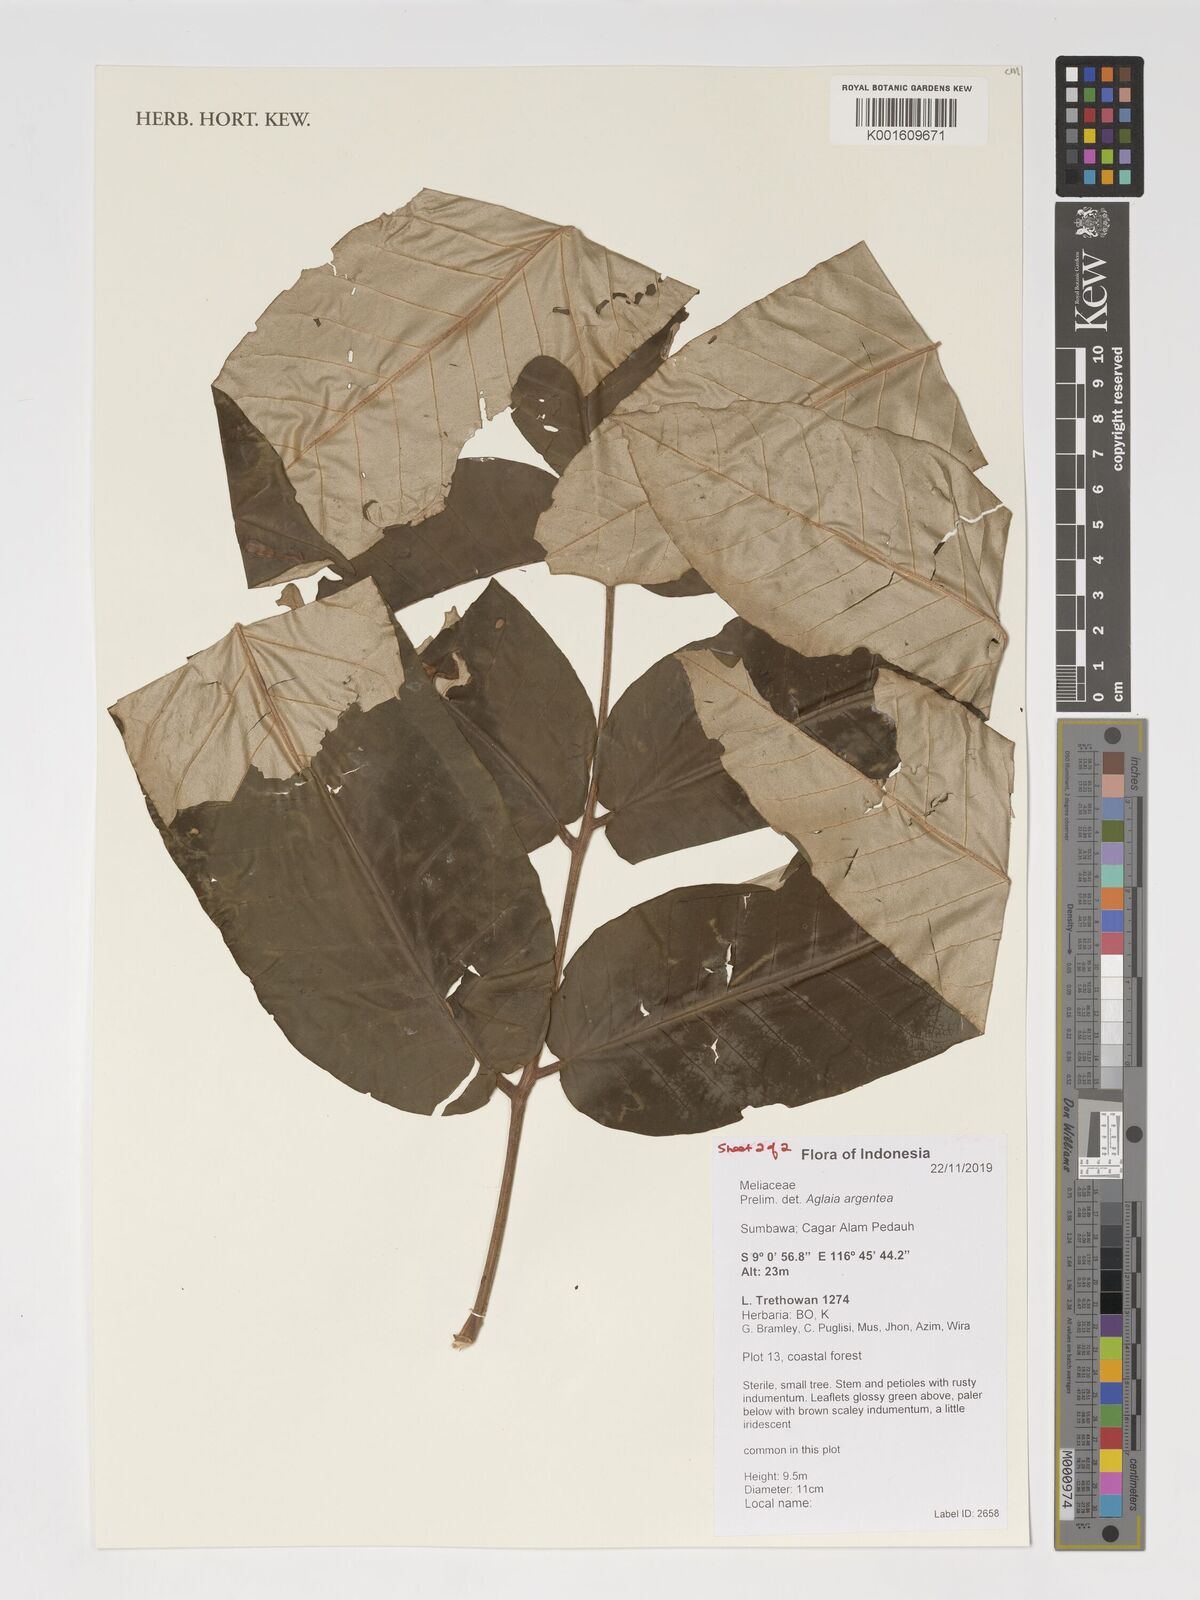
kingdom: Plantae
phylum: Tracheophyta
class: Magnoliopsida
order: Sapindales
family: Meliaceae
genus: Aglaia
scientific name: Aglaia argentea
